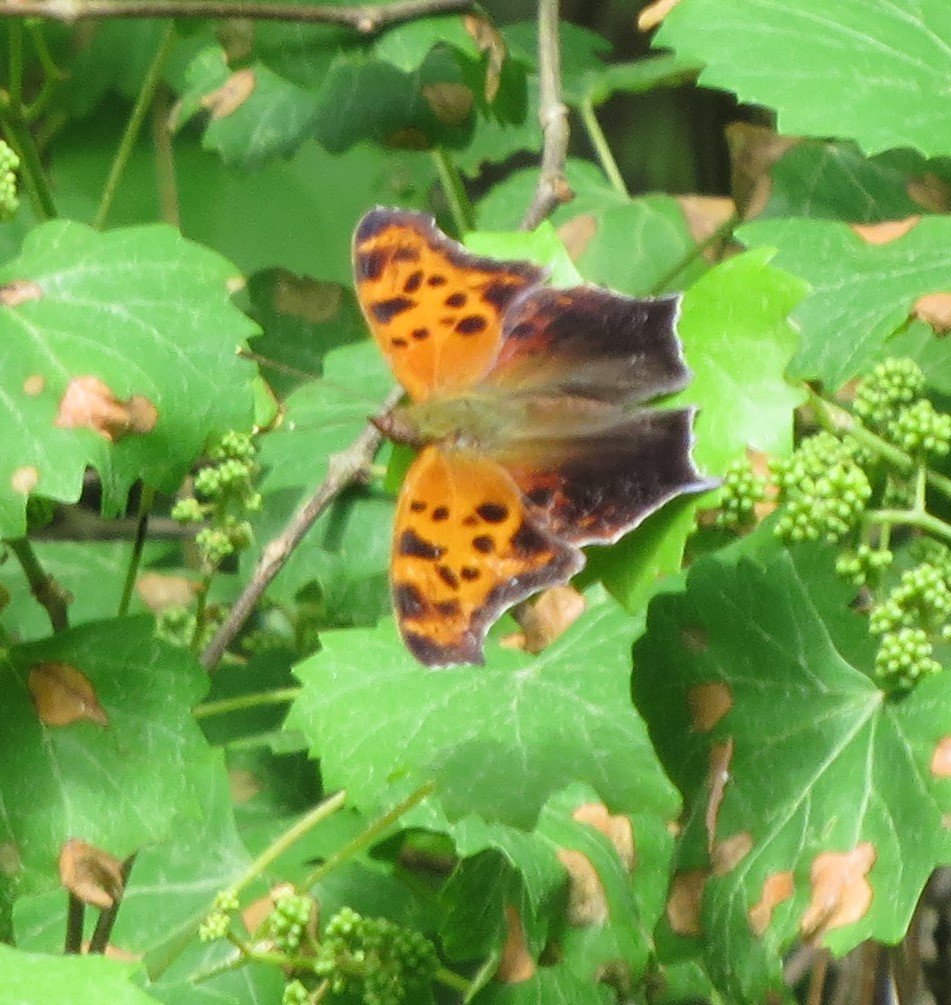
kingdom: Animalia
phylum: Arthropoda
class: Insecta
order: Lepidoptera
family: Nymphalidae
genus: Polygonia
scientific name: Polygonia interrogationis
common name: Question Mark
